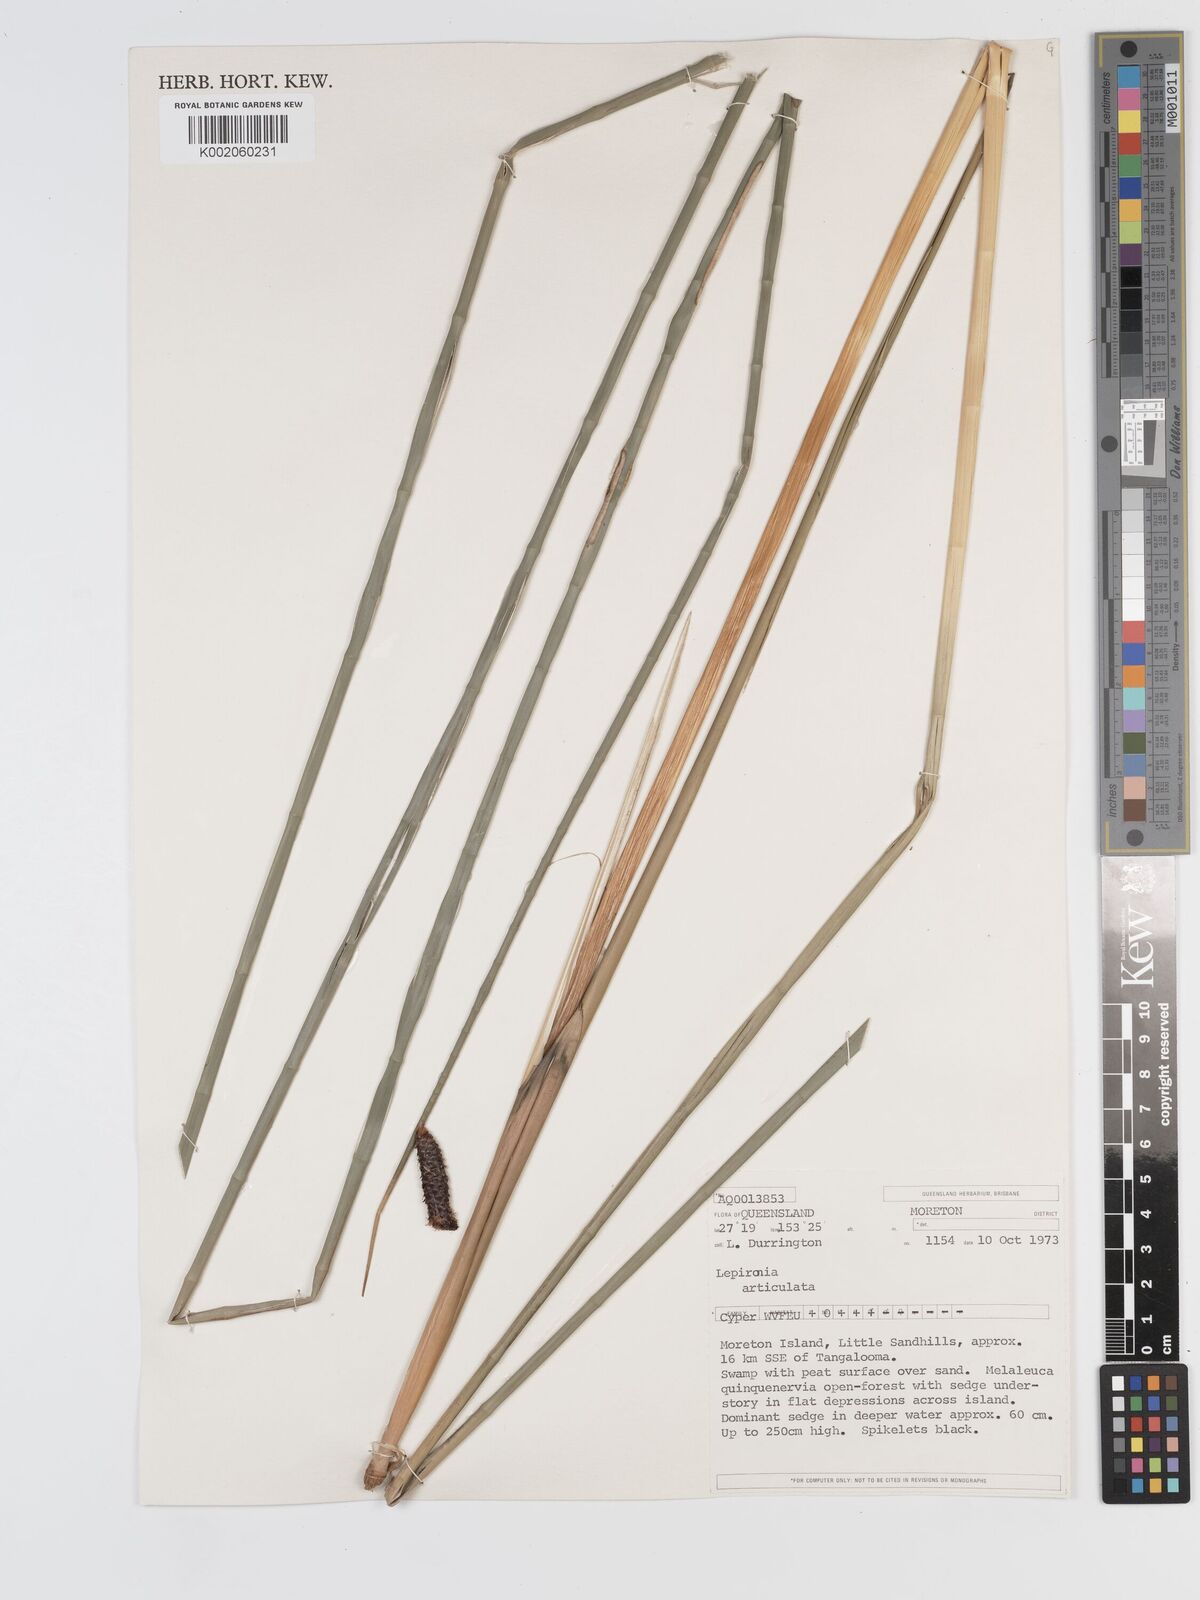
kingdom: Plantae
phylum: Tracheophyta
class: Liliopsida
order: Poales
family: Cyperaceae
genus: Lepironia
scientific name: Lepironia articulata
